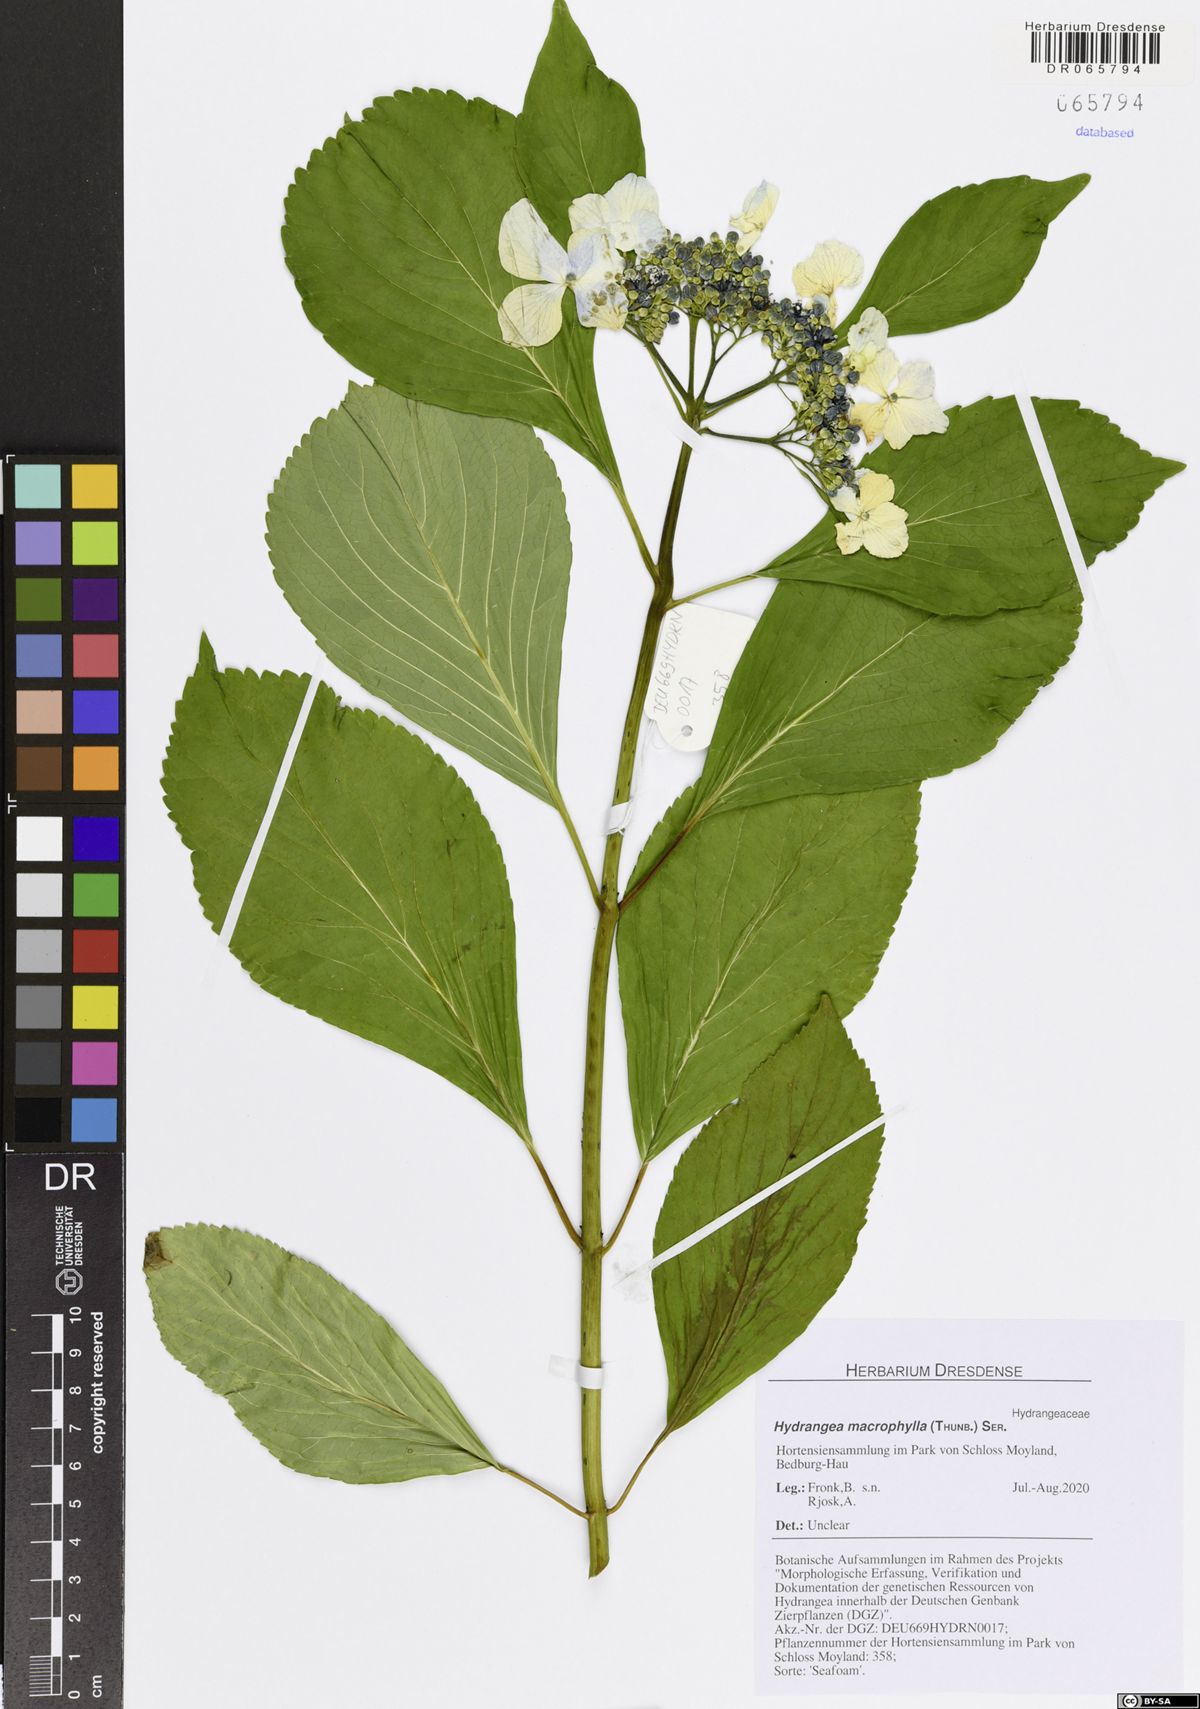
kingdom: Plantae
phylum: Tracheophyta
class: Magnoliopsida
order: Cornales
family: Hydrangeaceae
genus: Hydrangea
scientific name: Hydrangea macrophylla
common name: Hydrangea
